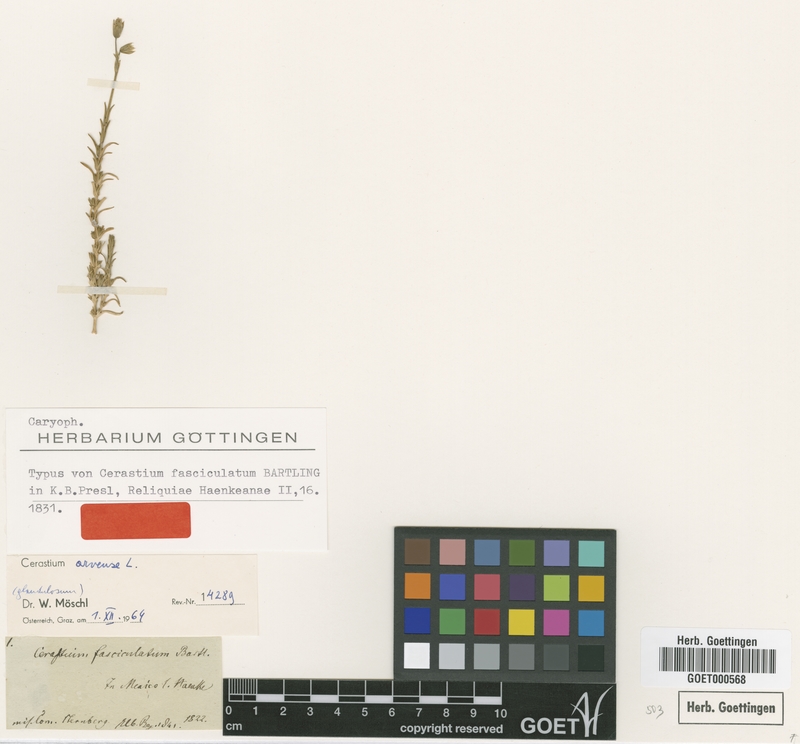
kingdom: Plantae
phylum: Tracheophyta
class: Magnoliopsida
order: Caryophyllales
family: Caryophyllaceae
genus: Cerastium
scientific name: Cerastium arvense
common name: Field mouse-ear
